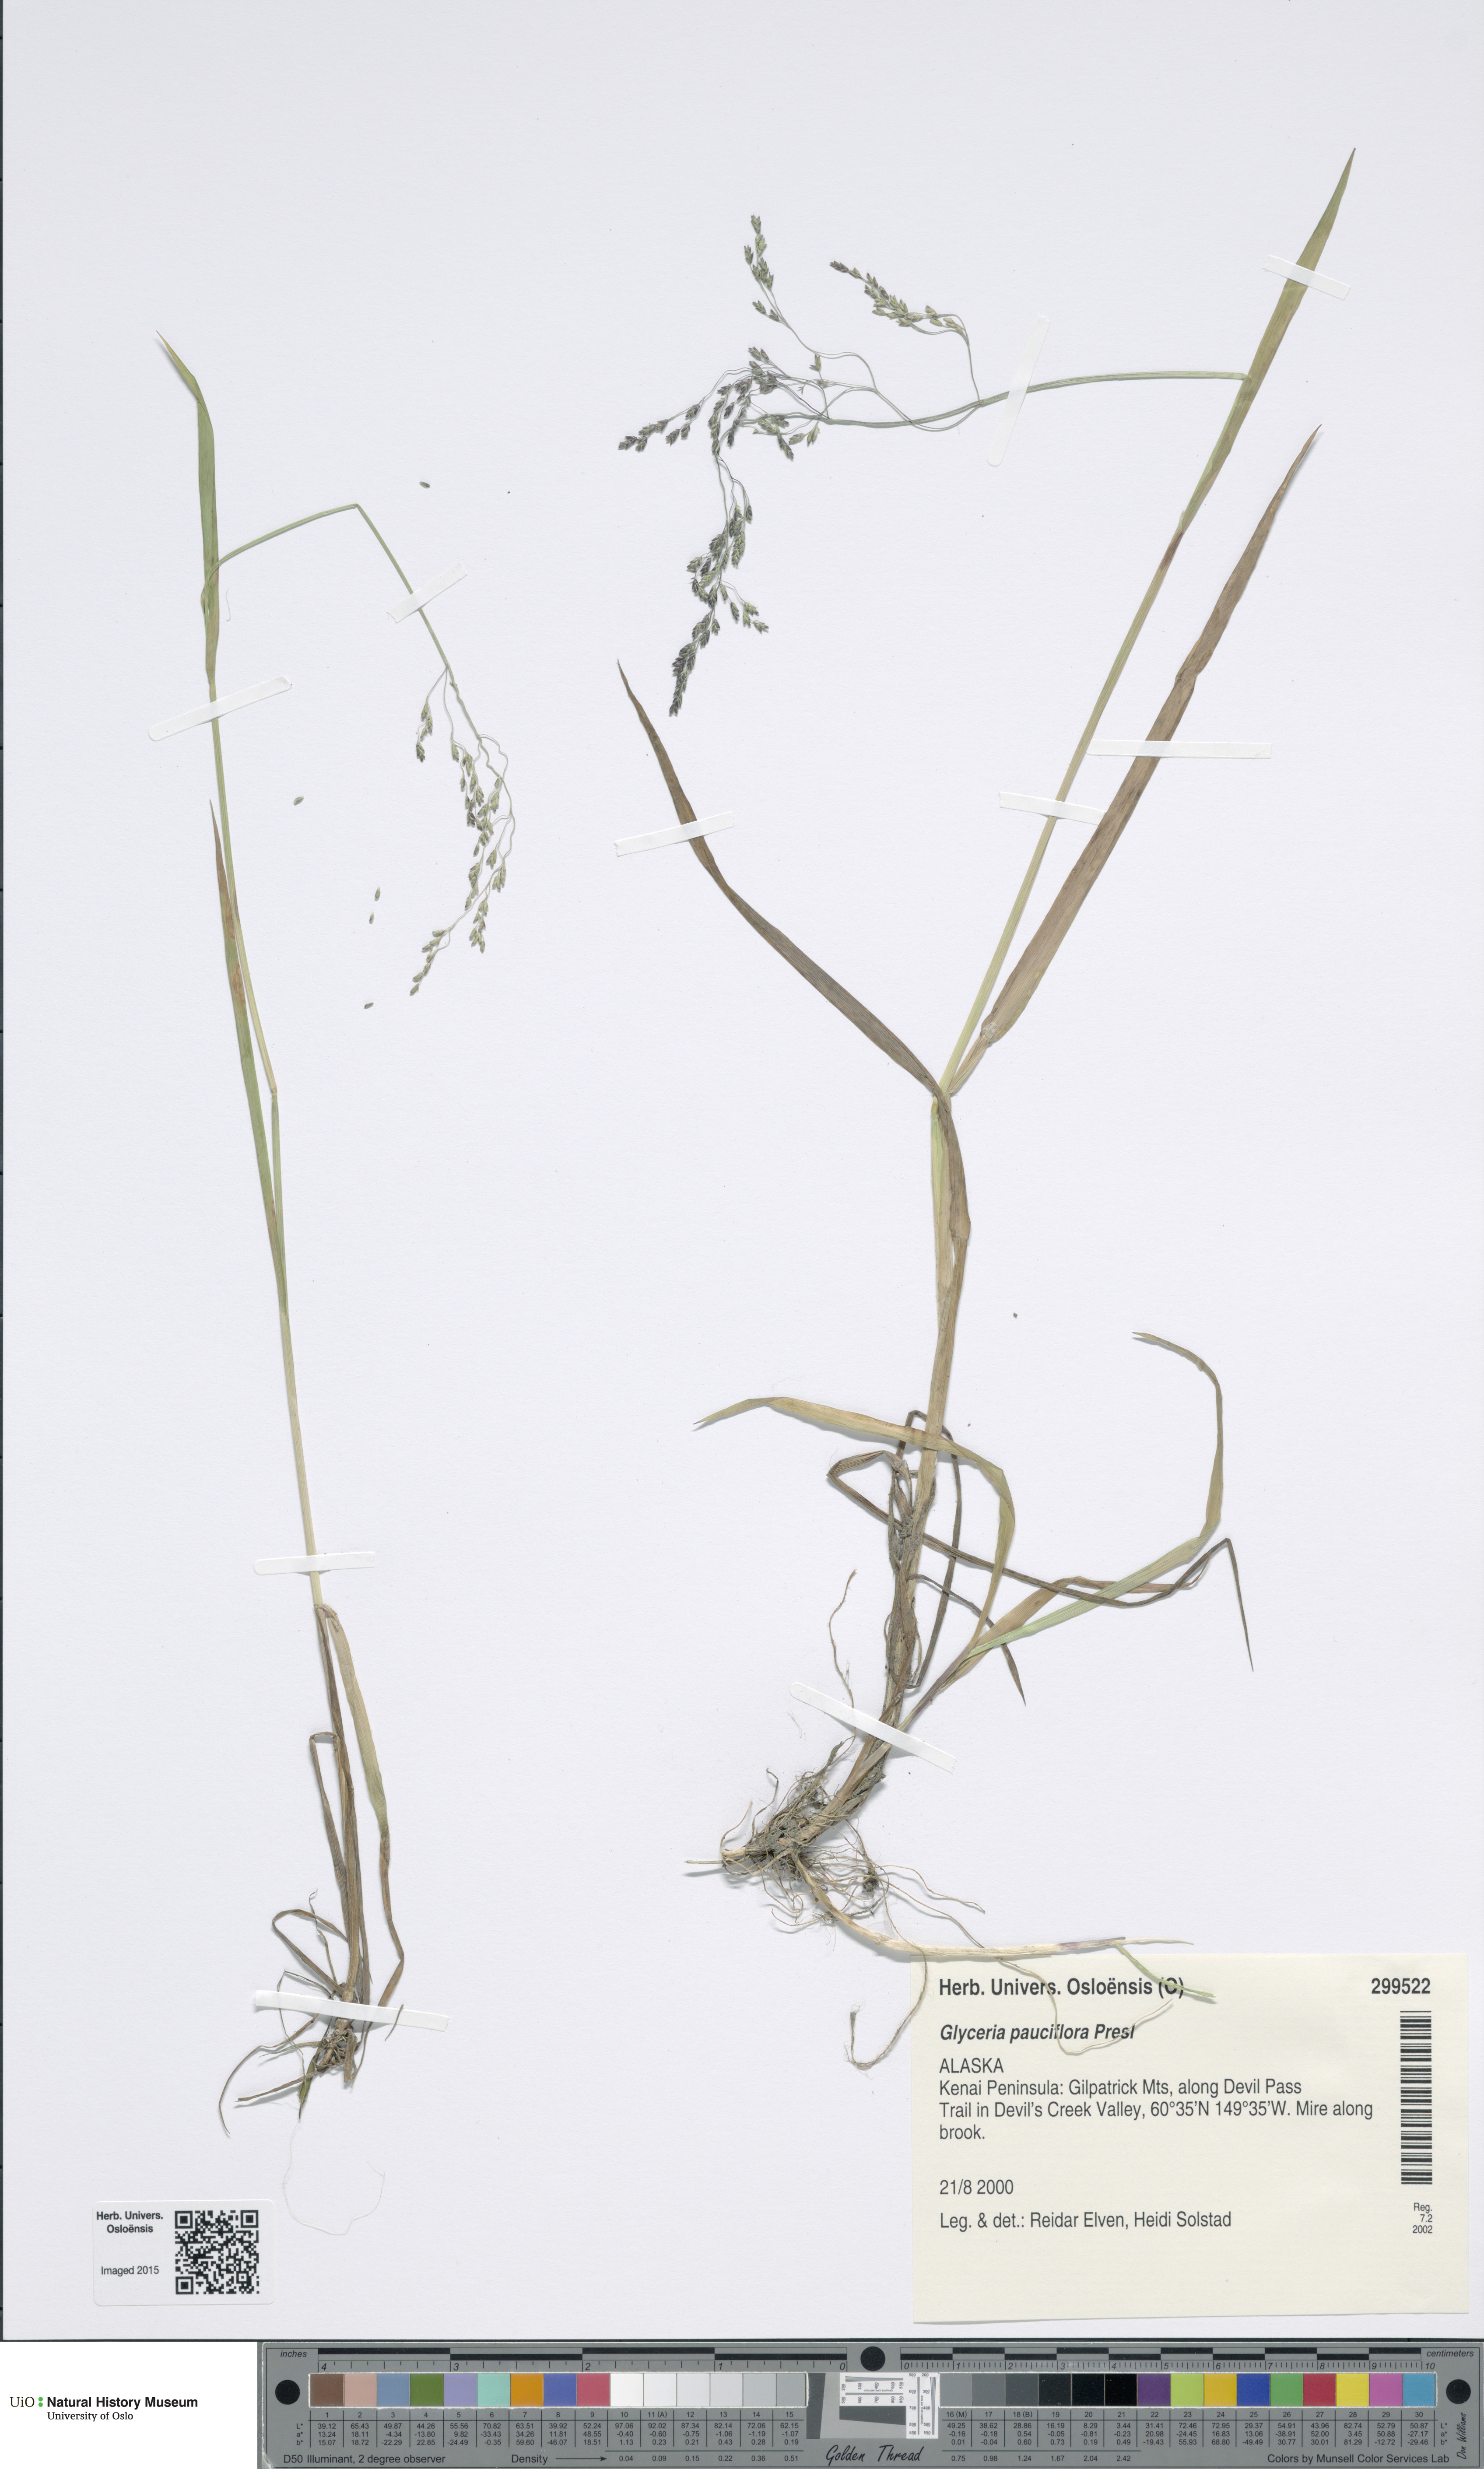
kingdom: Plantae
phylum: Tracheophyta
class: Liliopsida
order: Poales
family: Poaceae
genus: Torreyochloa
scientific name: Torreyochloa pallida
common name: Pale false mannagrass
